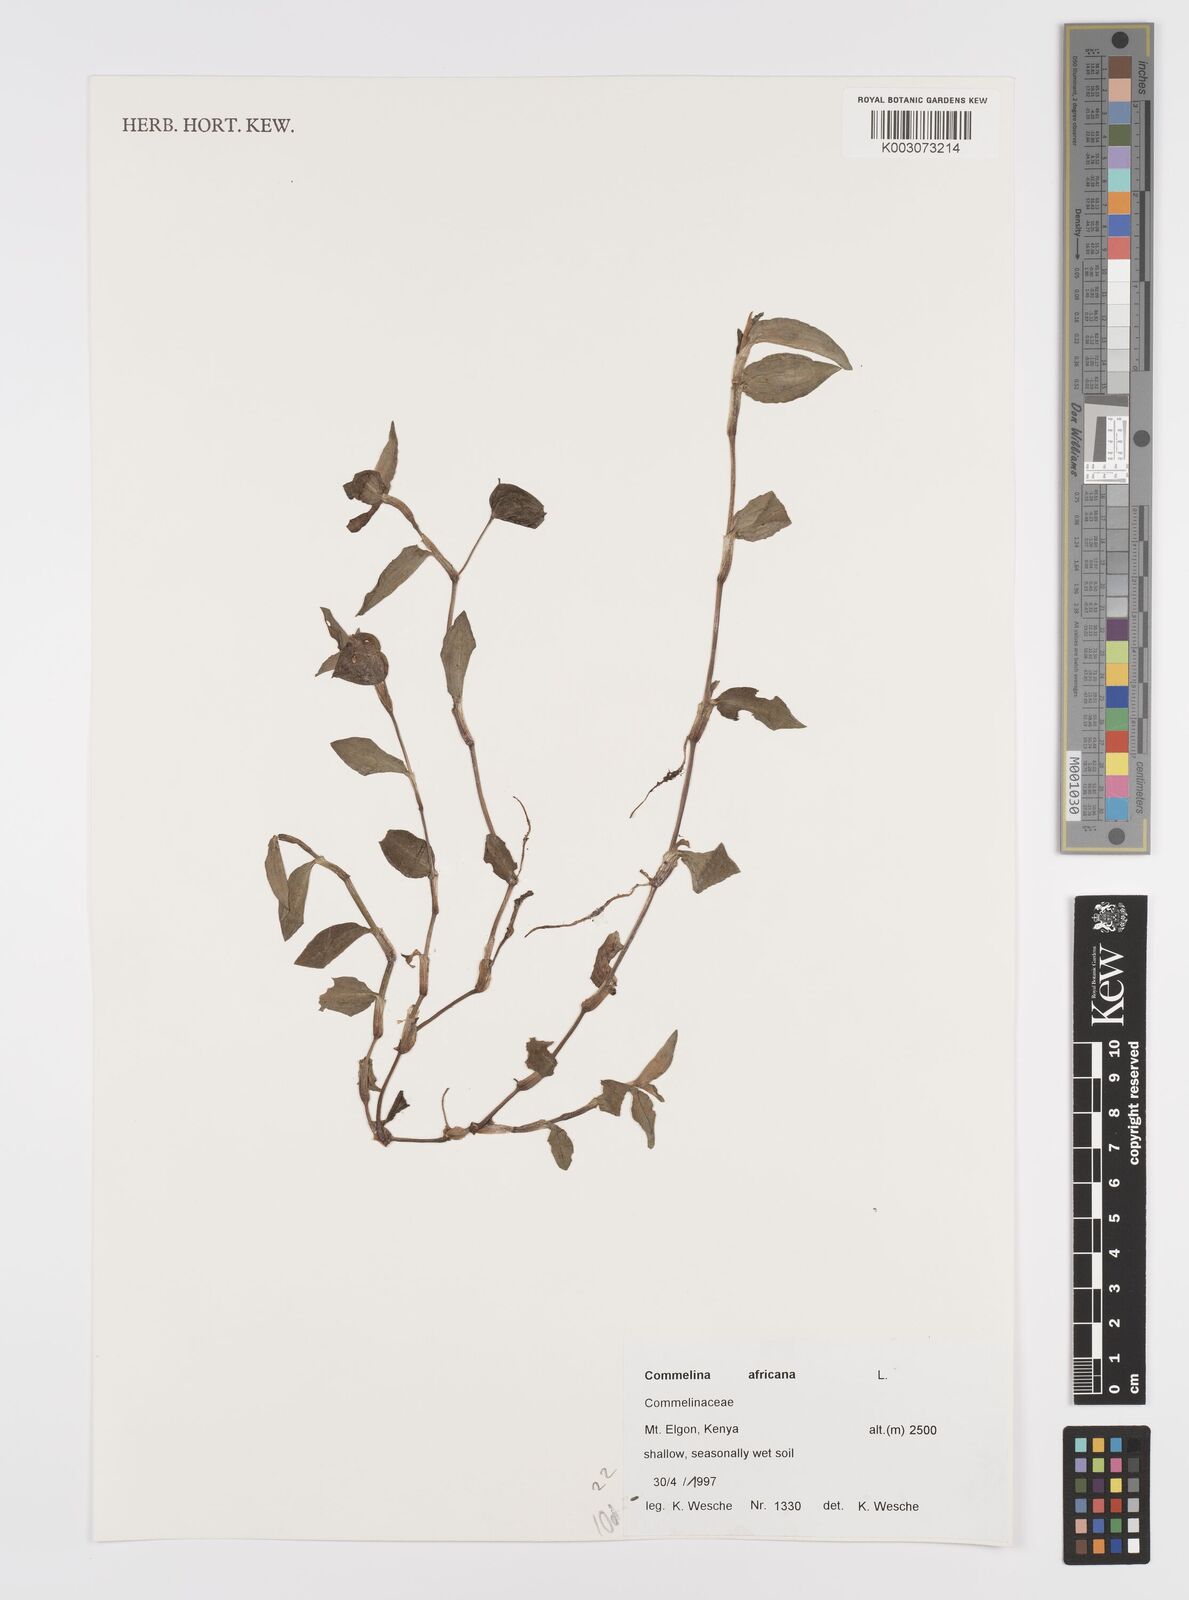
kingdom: Plantae
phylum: Tracheophyta
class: Liliopsida
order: Commelinales
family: Commelinaceae
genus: Commelina
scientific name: Commelina africana
